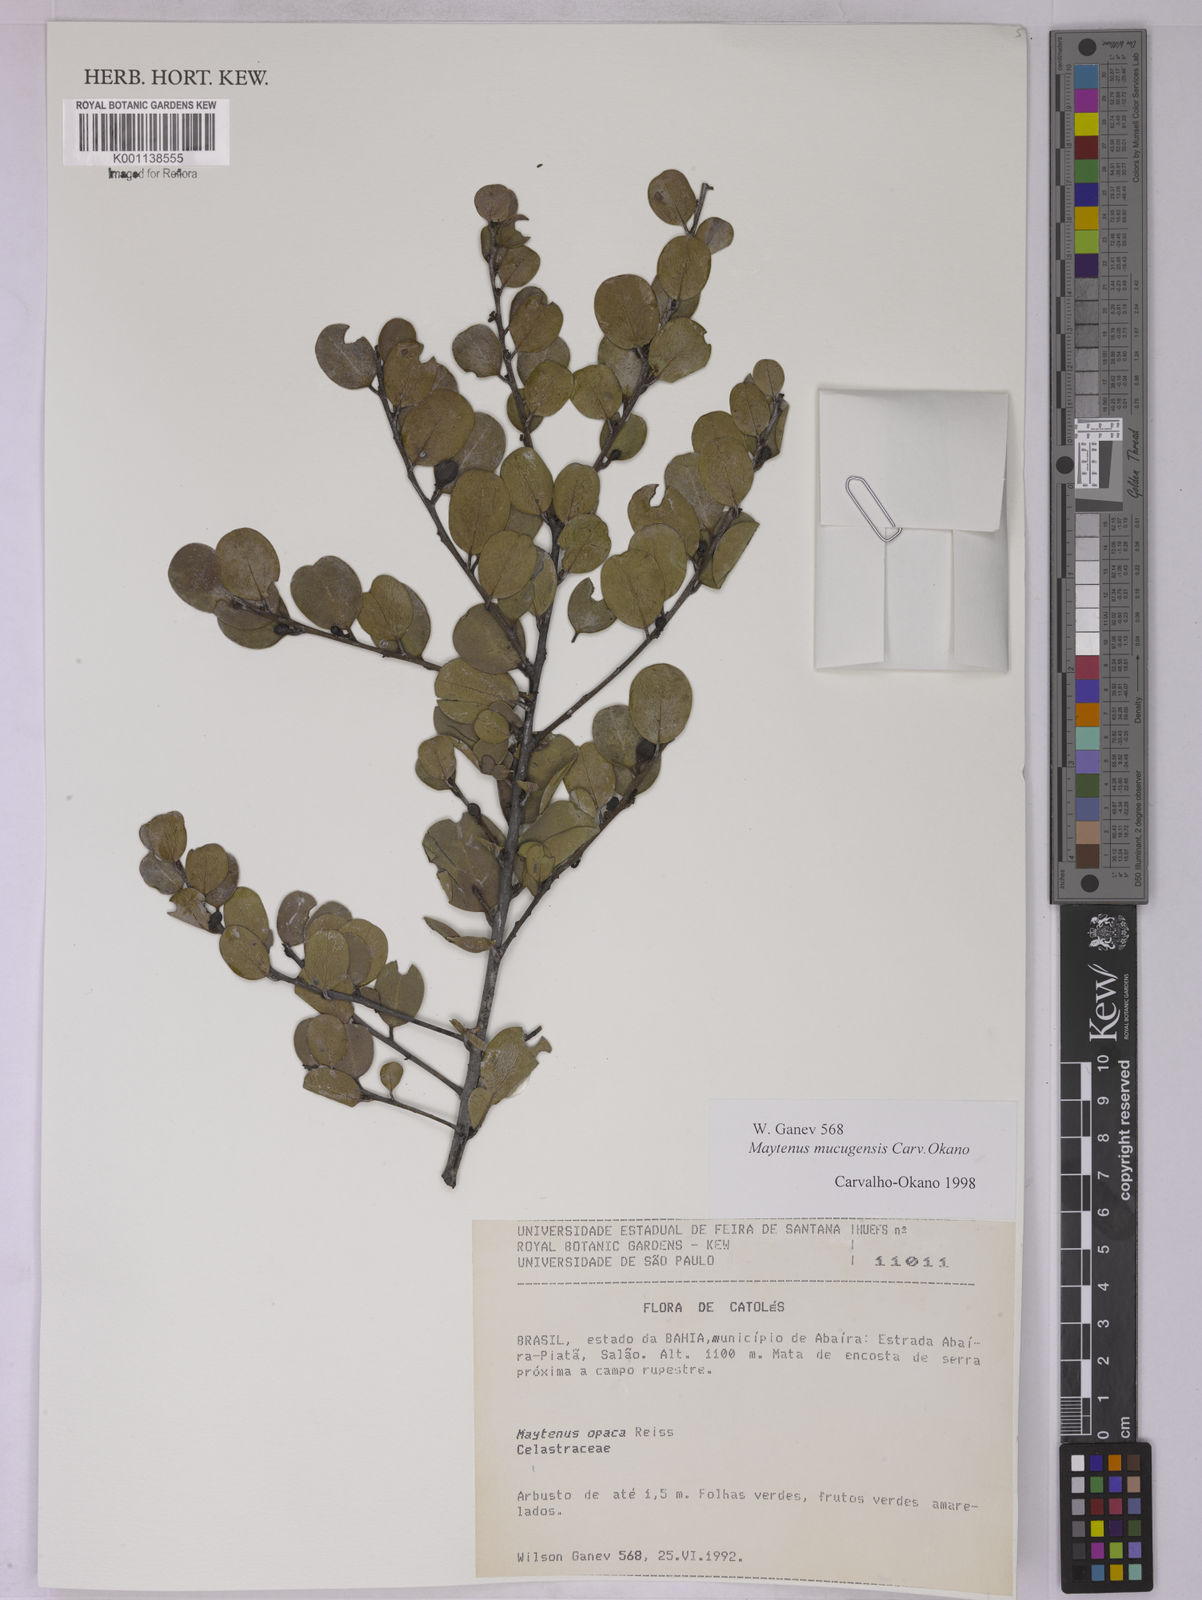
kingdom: Plantae
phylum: Tracheophyta
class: Magnoliopsida
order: Celastrales
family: Celastraceae
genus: Monteverdia
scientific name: Monteverdia mucugensis
